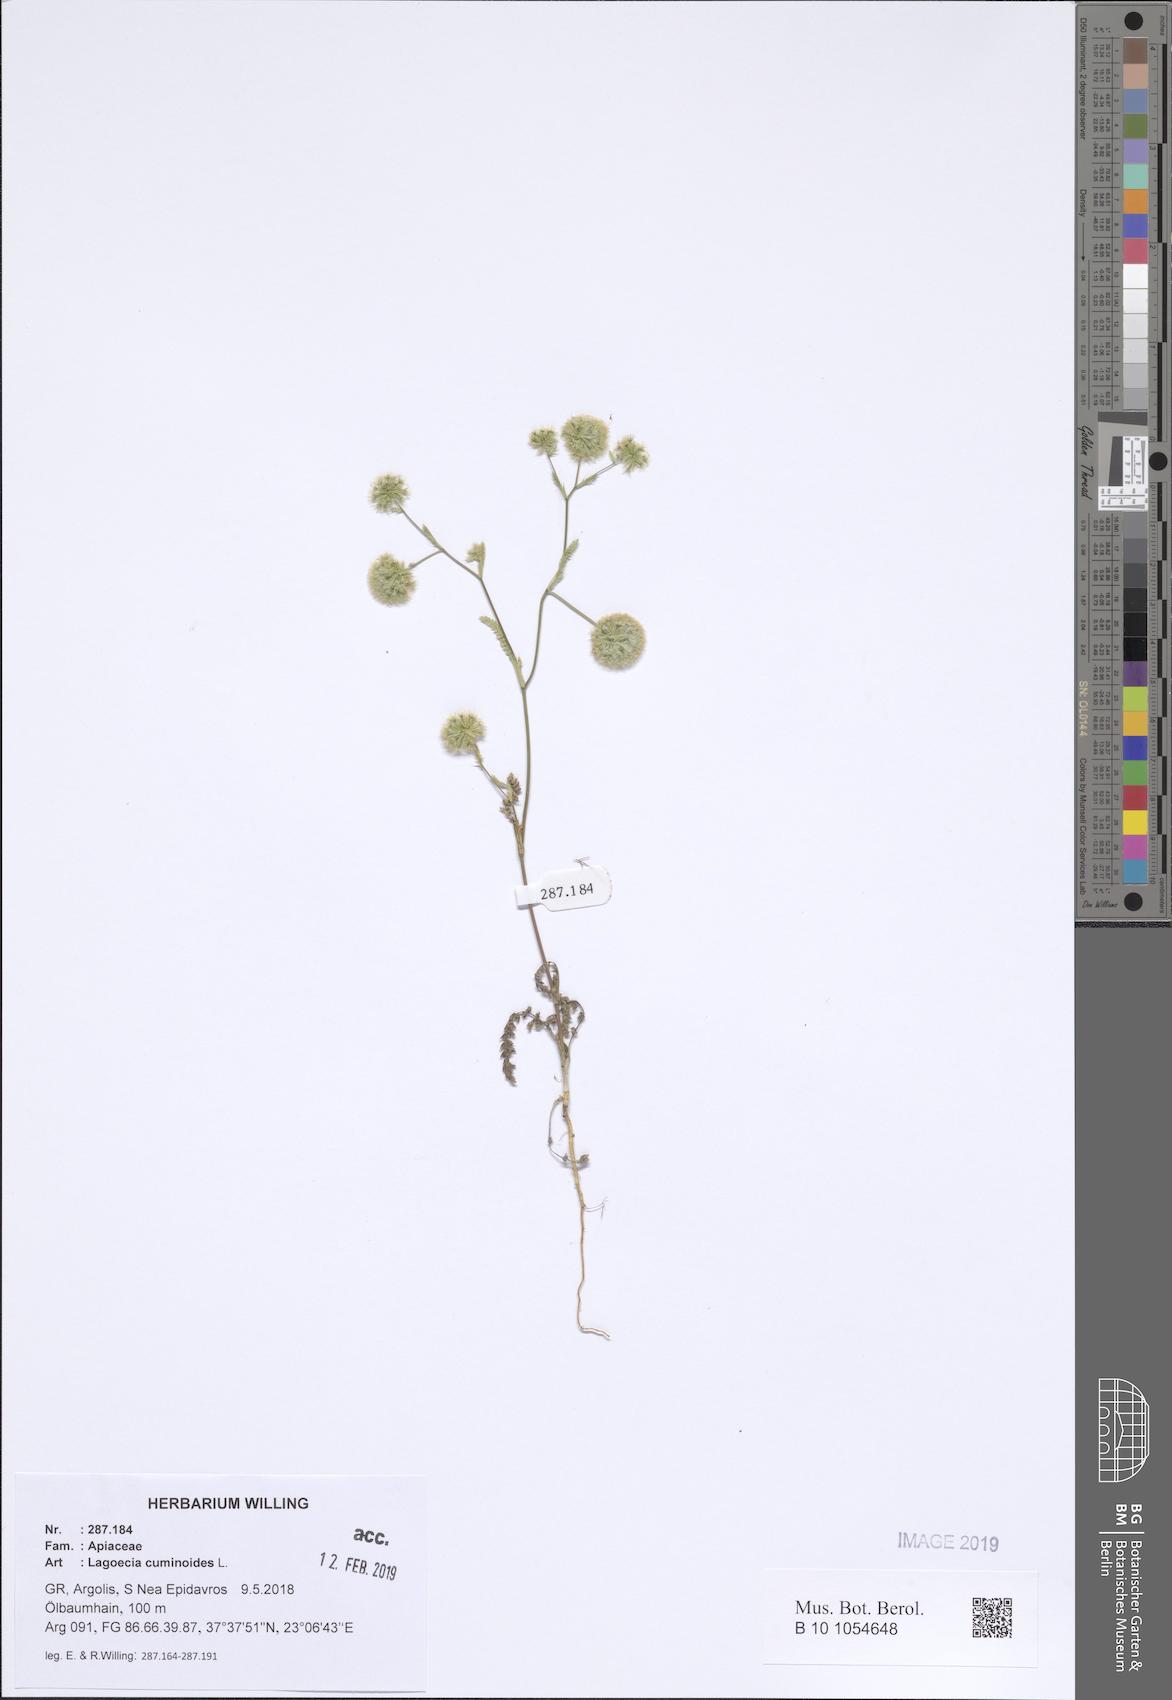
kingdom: Plantae
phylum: Tracheophyta
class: Magnoliopsida
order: Apiales
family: Apiaceae
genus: Lagoecia
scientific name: Lagoecia cuminoides
